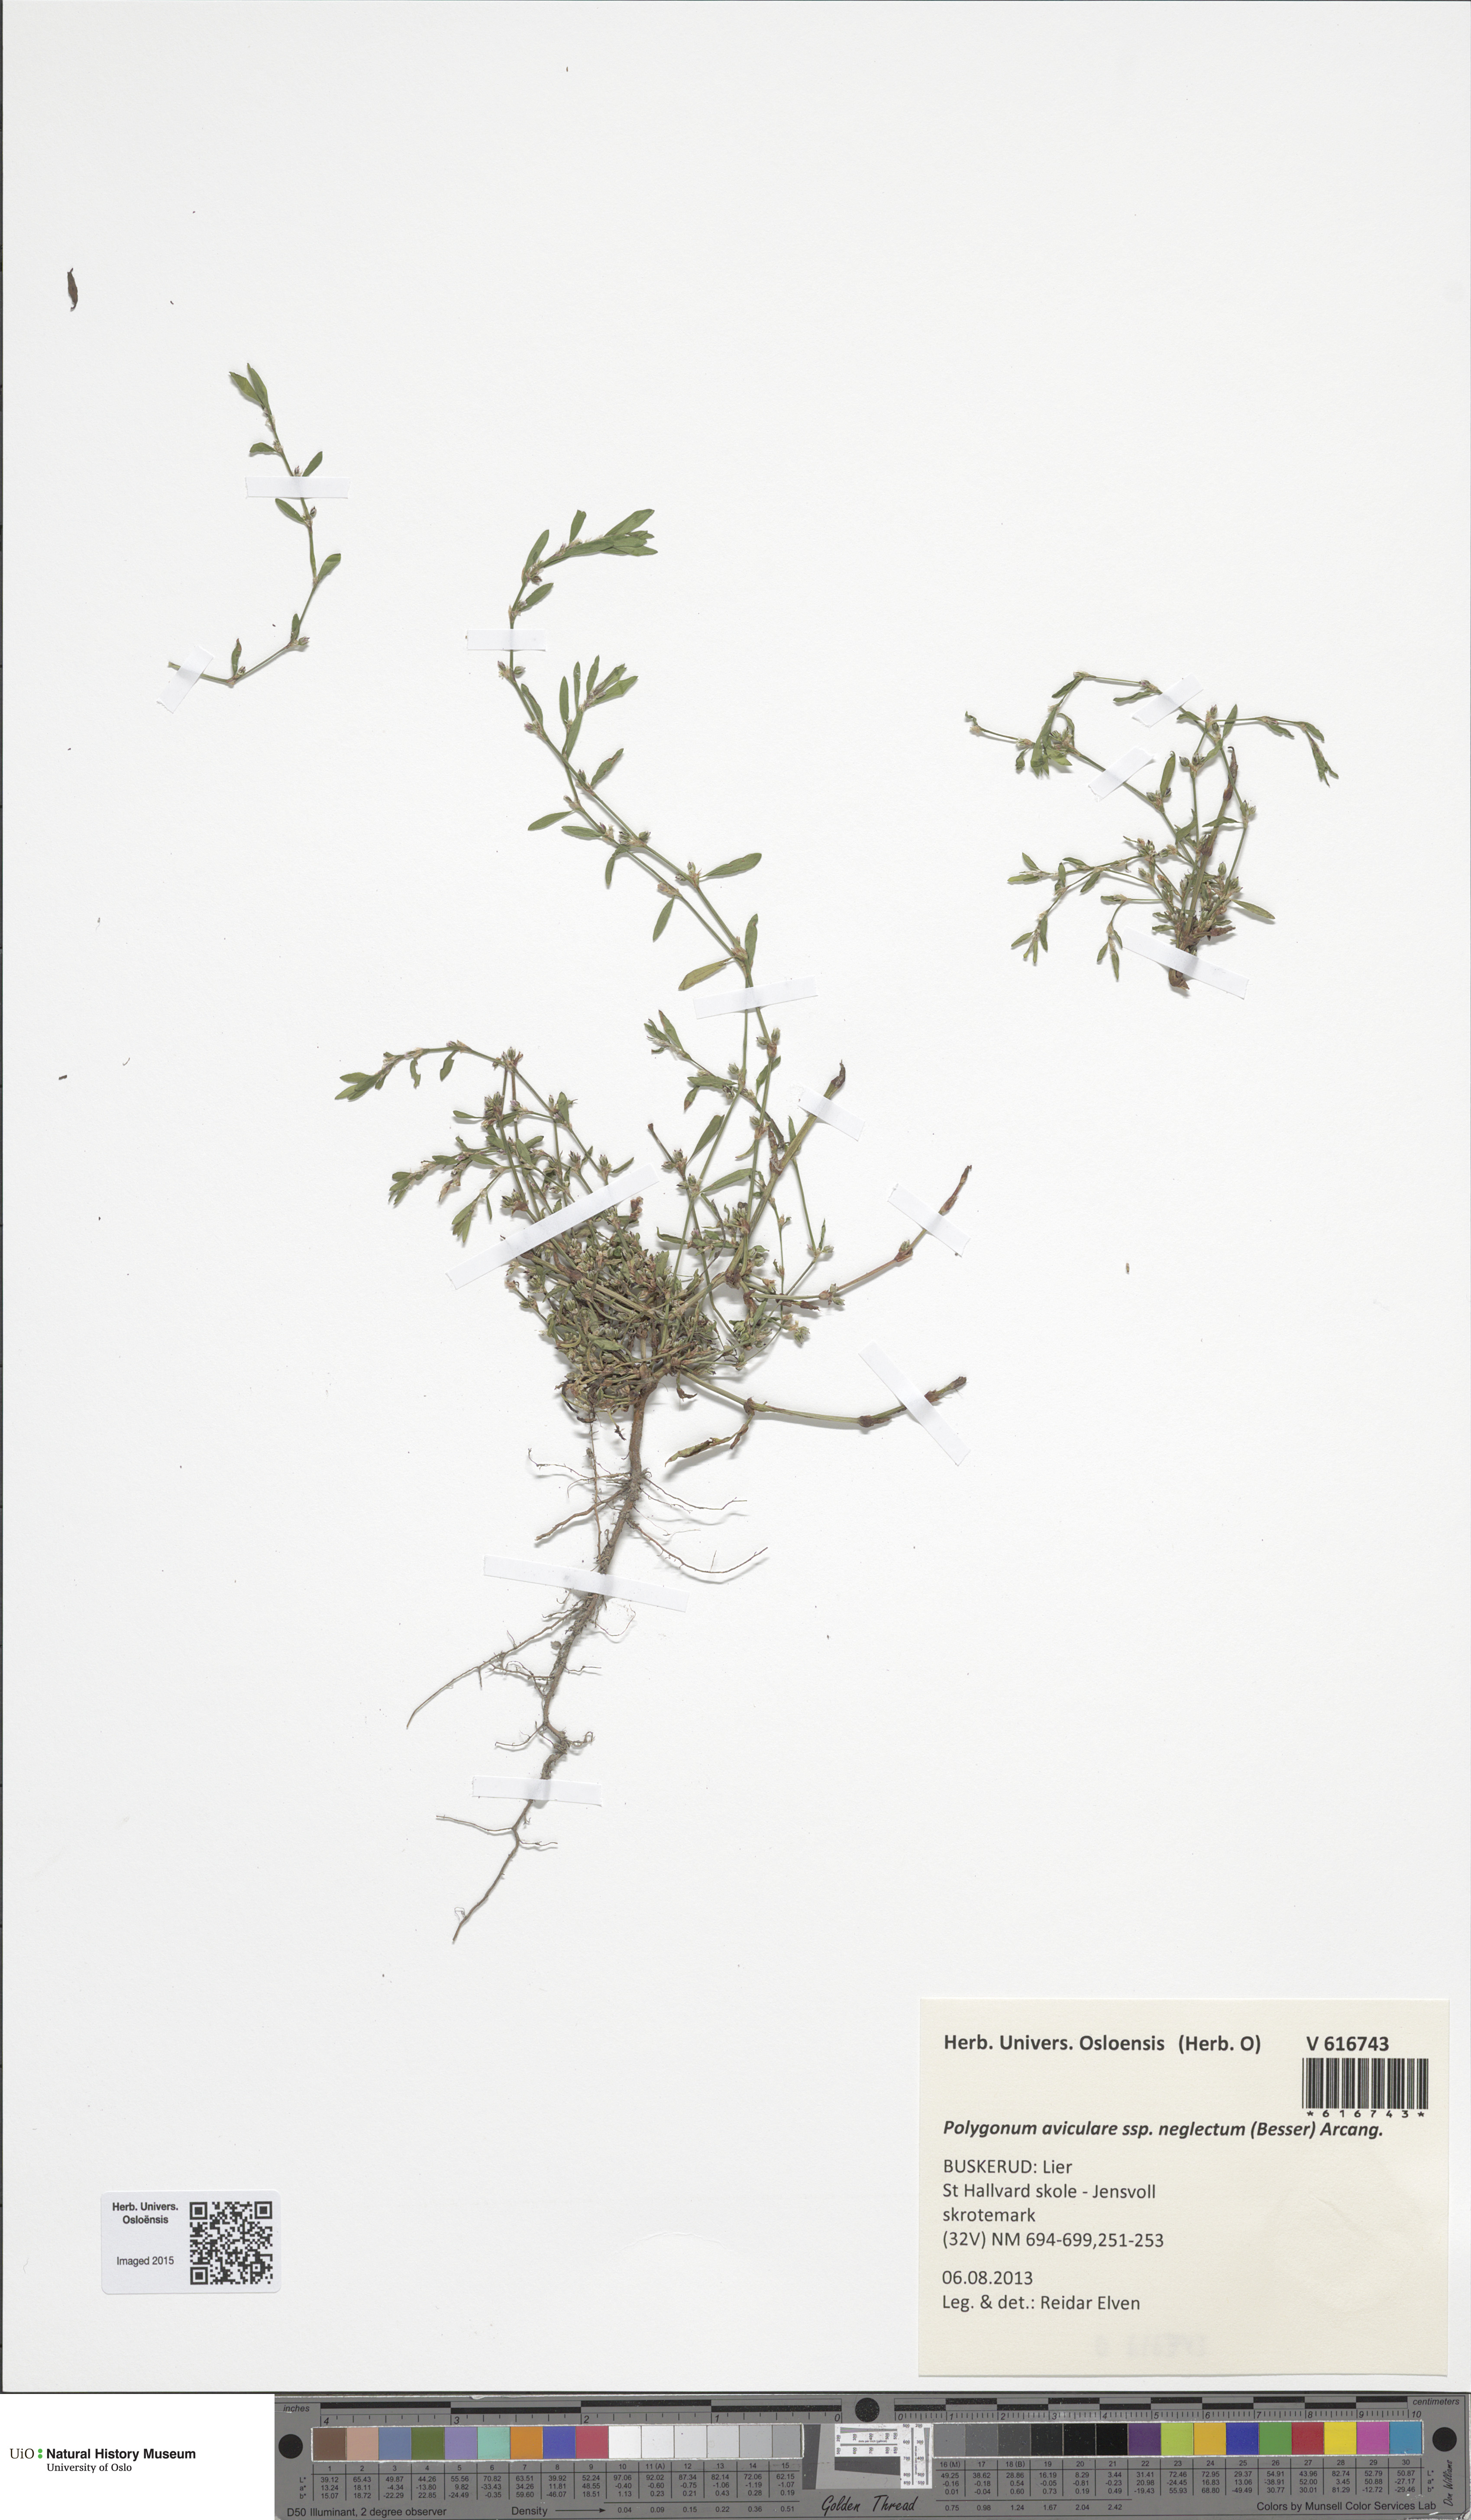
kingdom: Plantae
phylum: Tracheophyta
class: Magnoliopsida
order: Caryophyllales
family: Polygonaceae
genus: Polygonum
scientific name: Polygonum aviculare
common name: Prostrate knotweed
